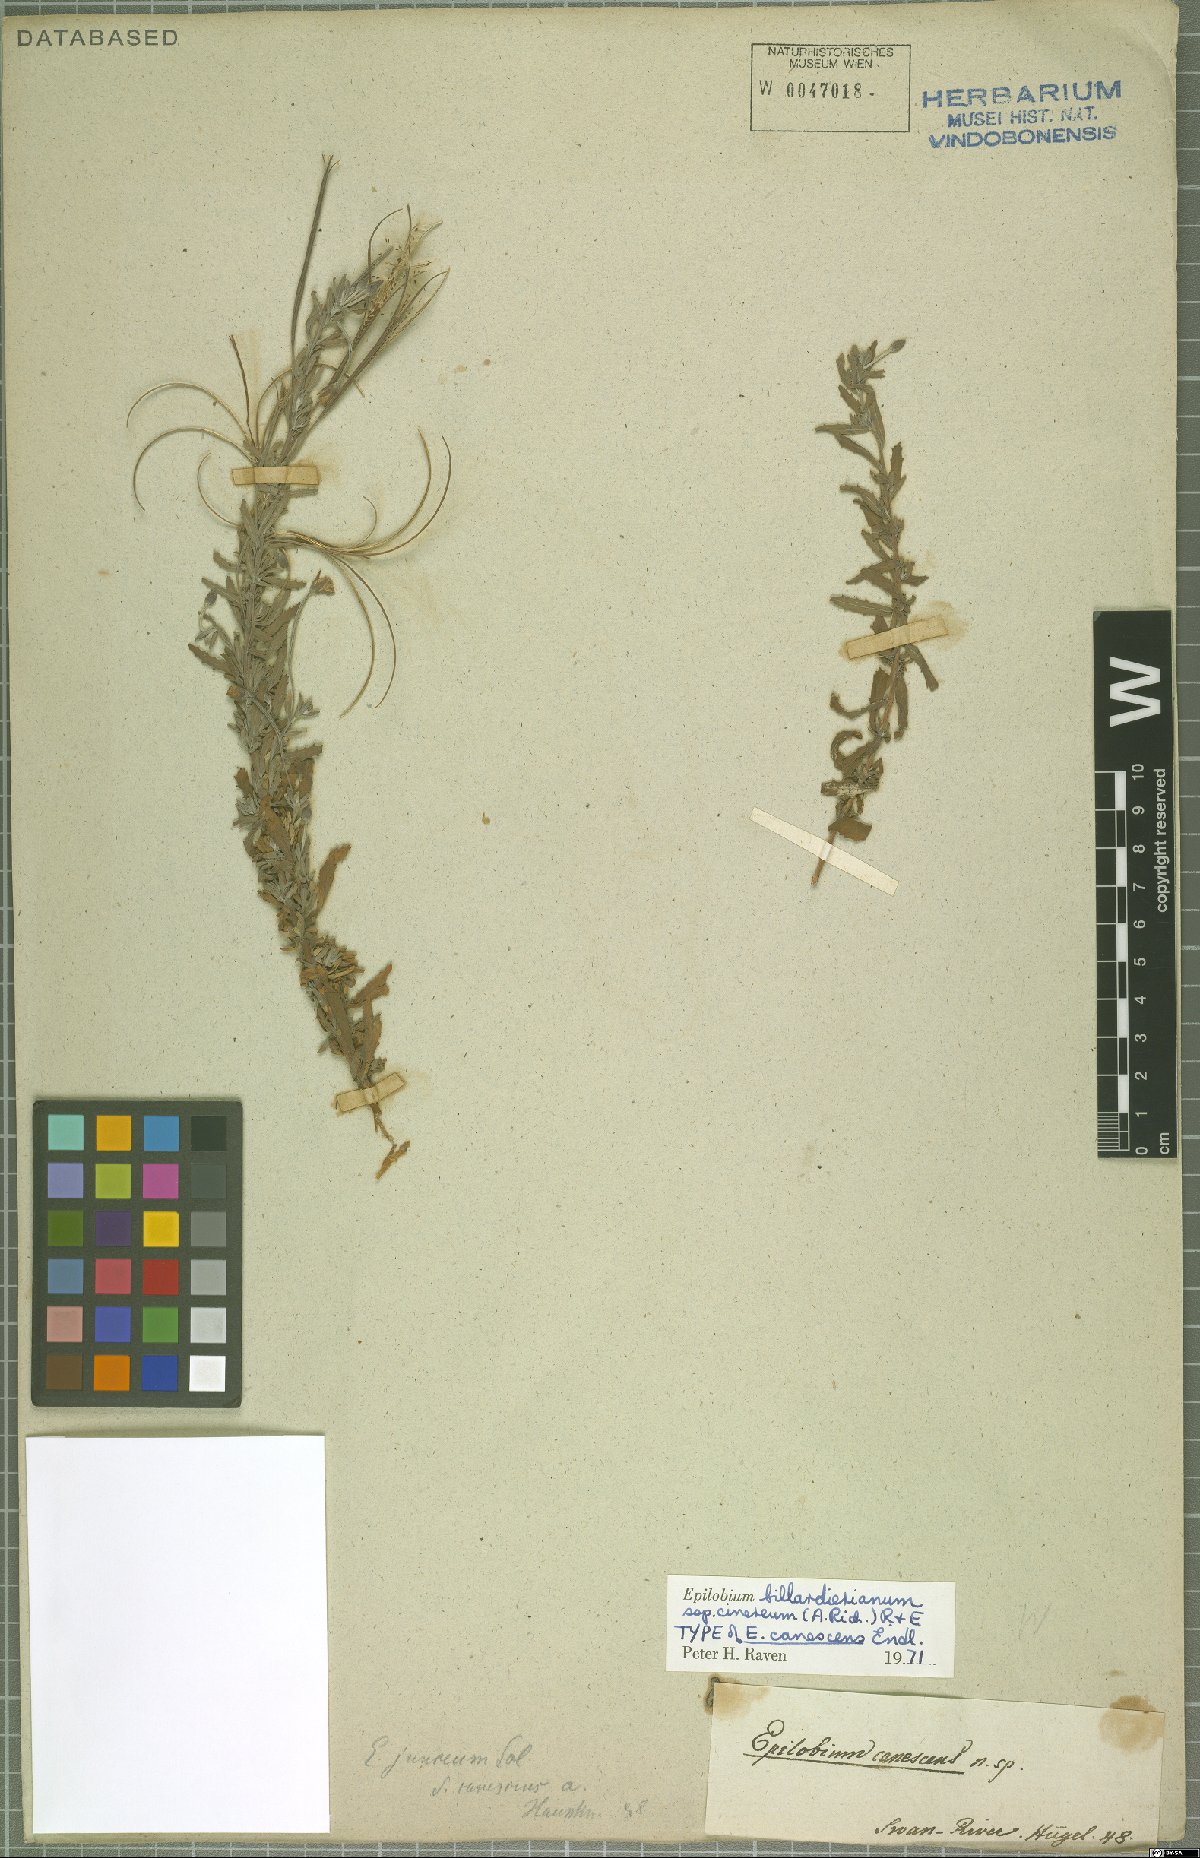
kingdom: Plantae
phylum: Tracheophyta
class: Magnoliopsida
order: Myrtales
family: Onagraceae
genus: Epilobium
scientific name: Epilobium billardierianum
